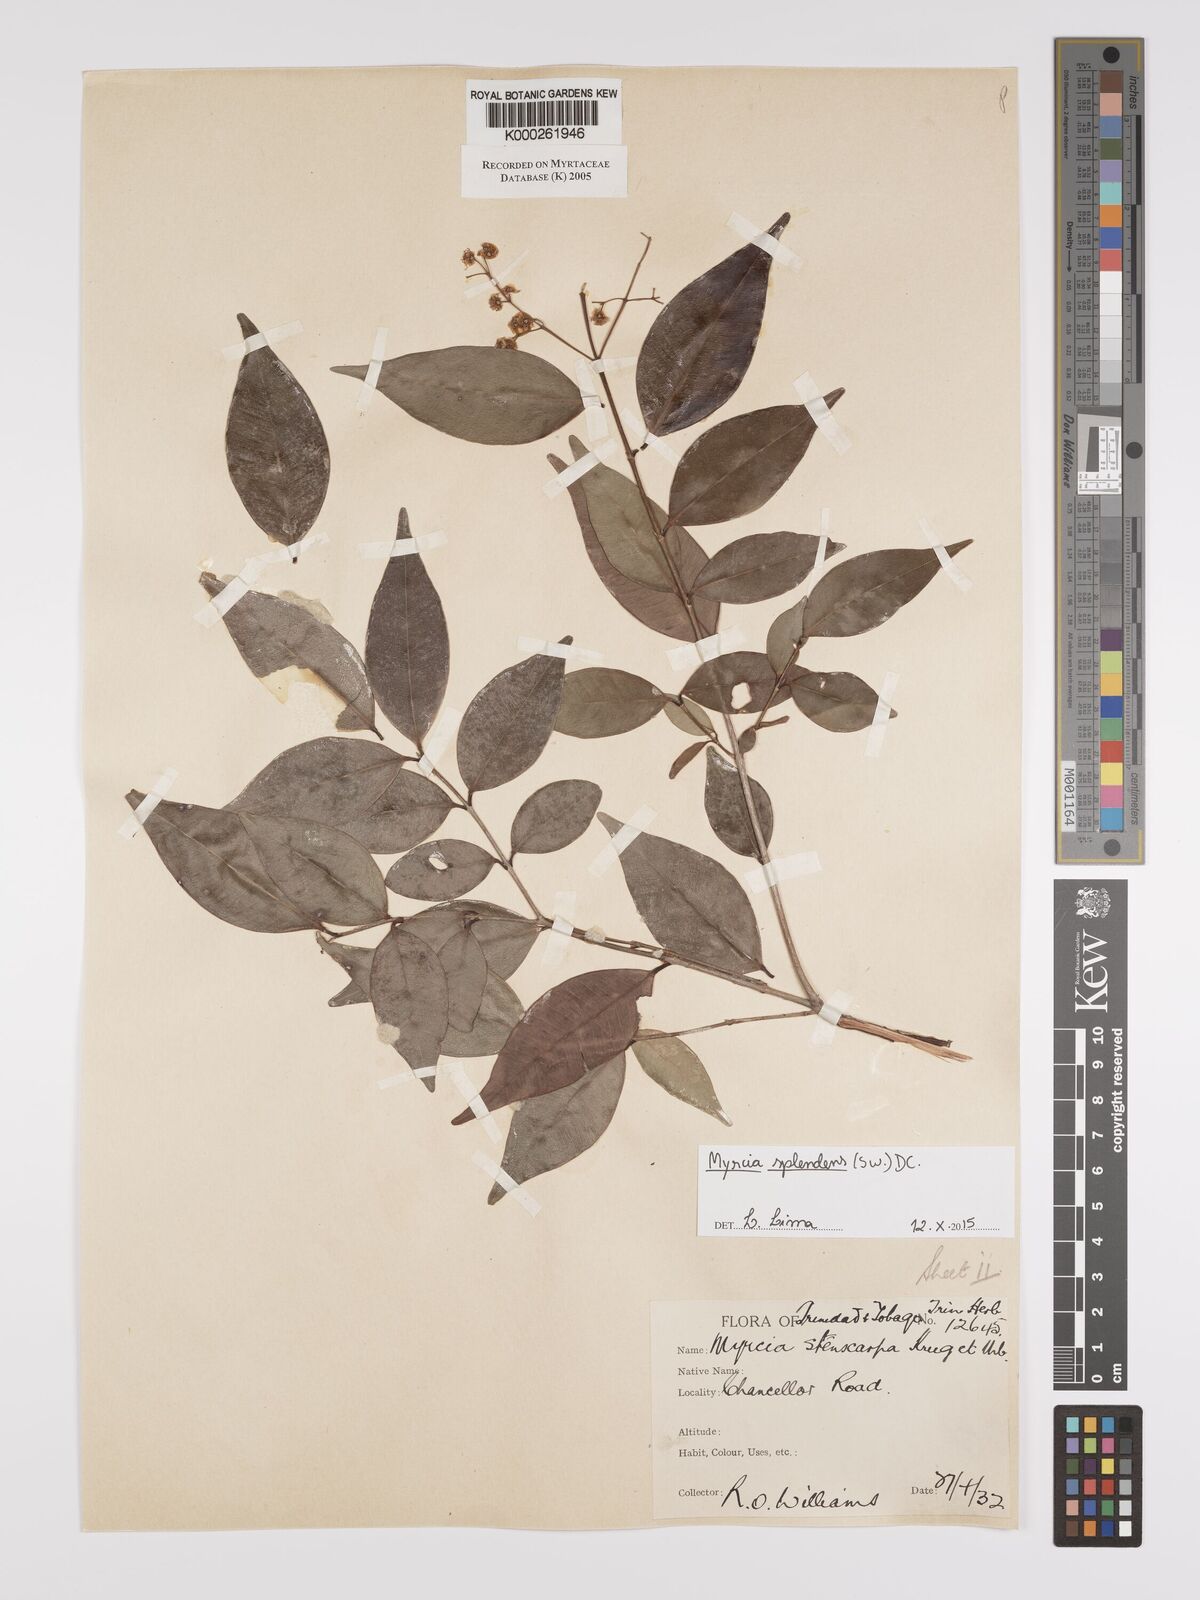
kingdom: Plantae
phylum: Tracheophyta
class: Magnoliopsida
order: Myrtales
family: Myrtaceae
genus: Myrcia
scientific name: Myrcia stenocarpa
